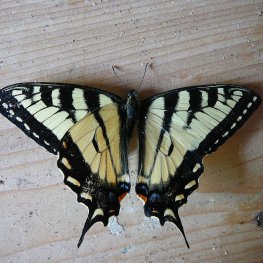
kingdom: Animalia
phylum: Arthropoda
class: Insecta
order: Lepidoptera
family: Papilionidae
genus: Pterourus
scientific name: Pterourus canadensis
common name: Canadian Tiger Swallowtail
